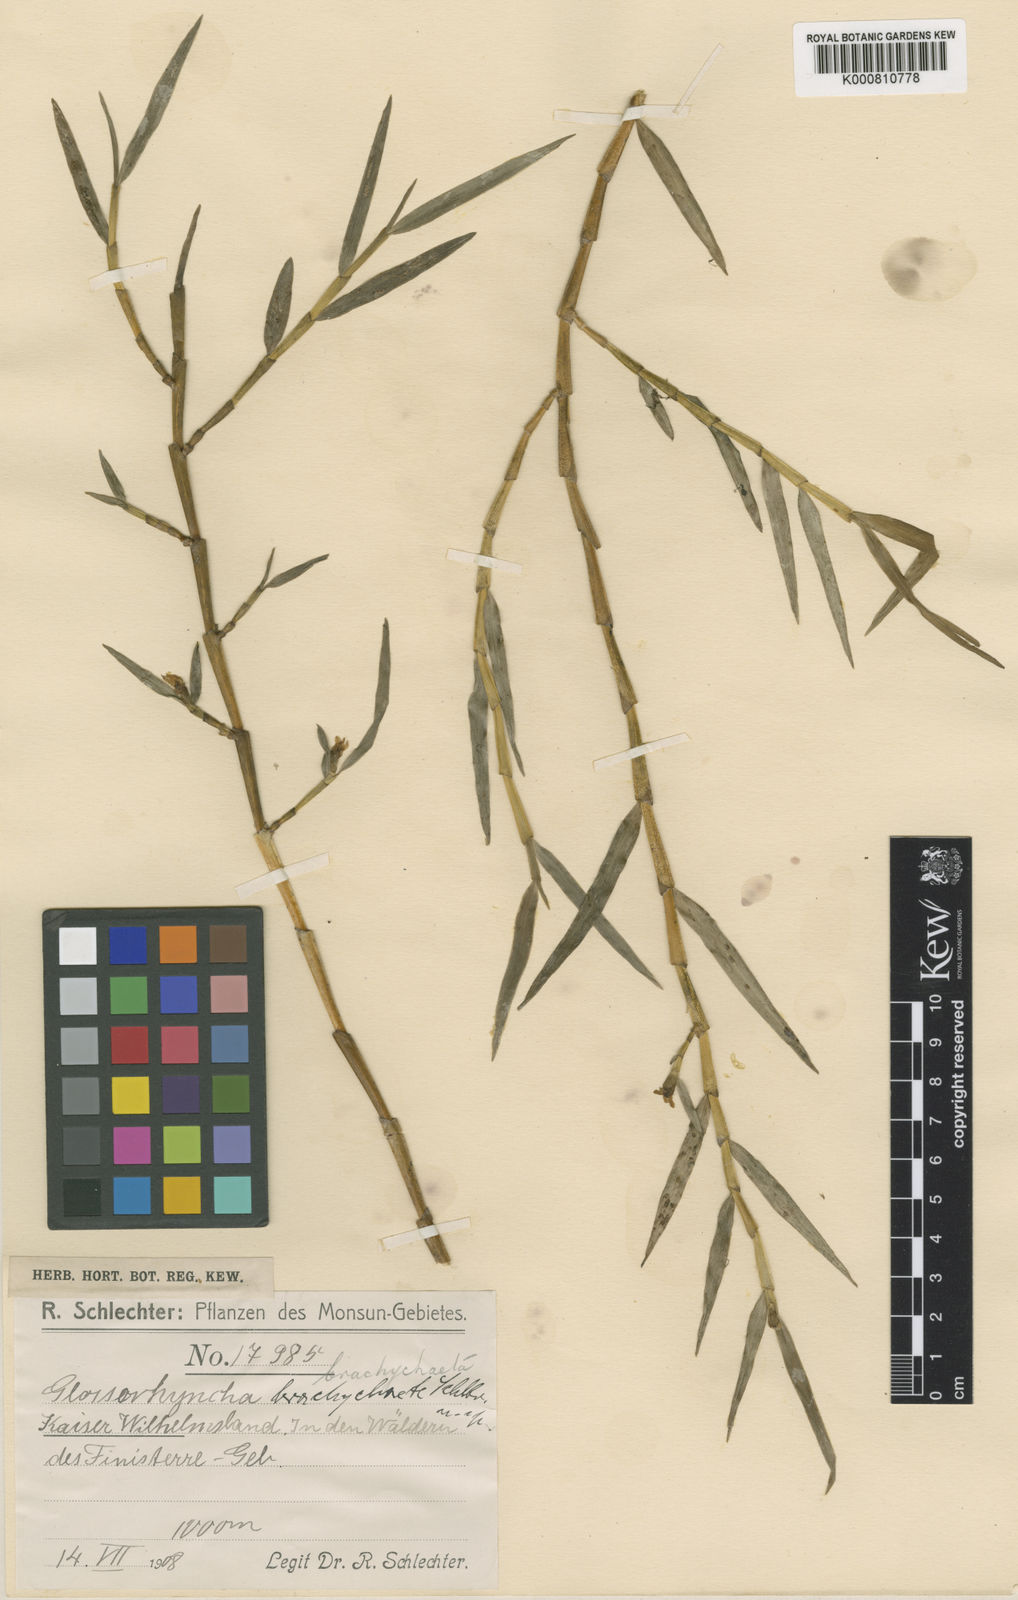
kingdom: Plantae
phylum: Tracheophyta
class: Liliopsida
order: Asparagales
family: Orchidaceae
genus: Glomera
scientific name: Glomera brachychaete
